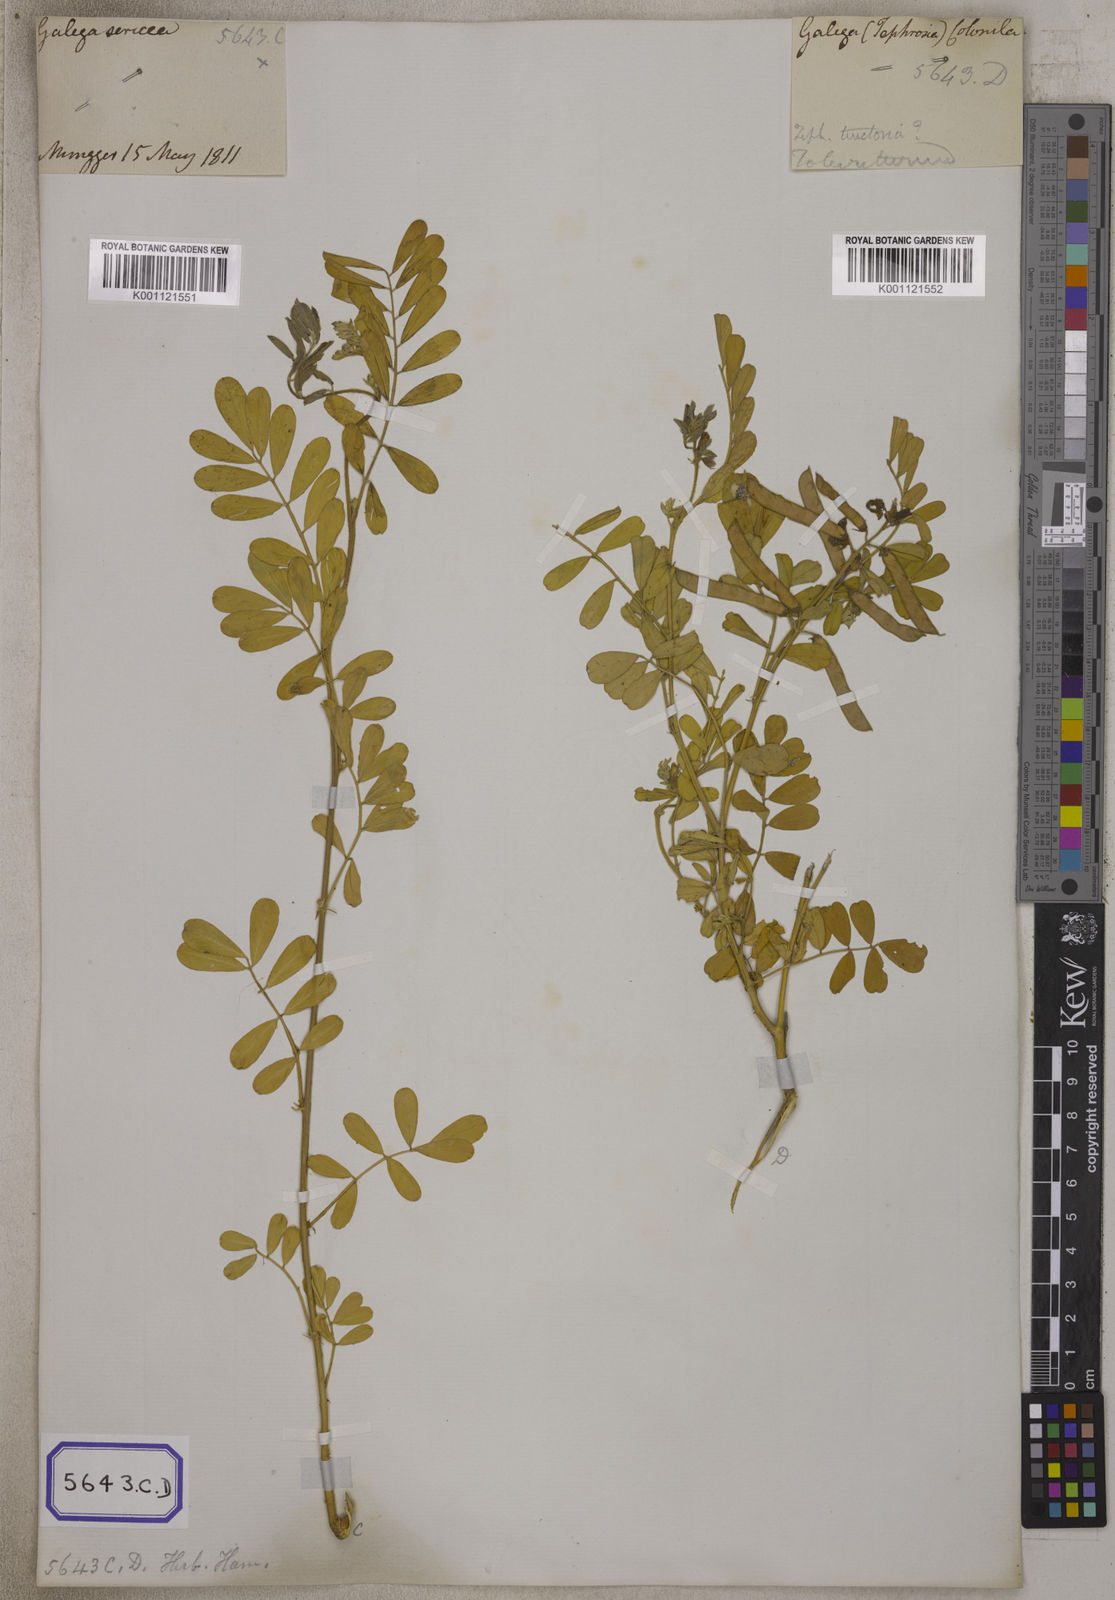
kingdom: Plantae
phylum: Tracheophyta
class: Magnoliopsida
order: Fabales
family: Fabaceae
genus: Tephrosia
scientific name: Tephrosia purpurea
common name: Fishpoison
